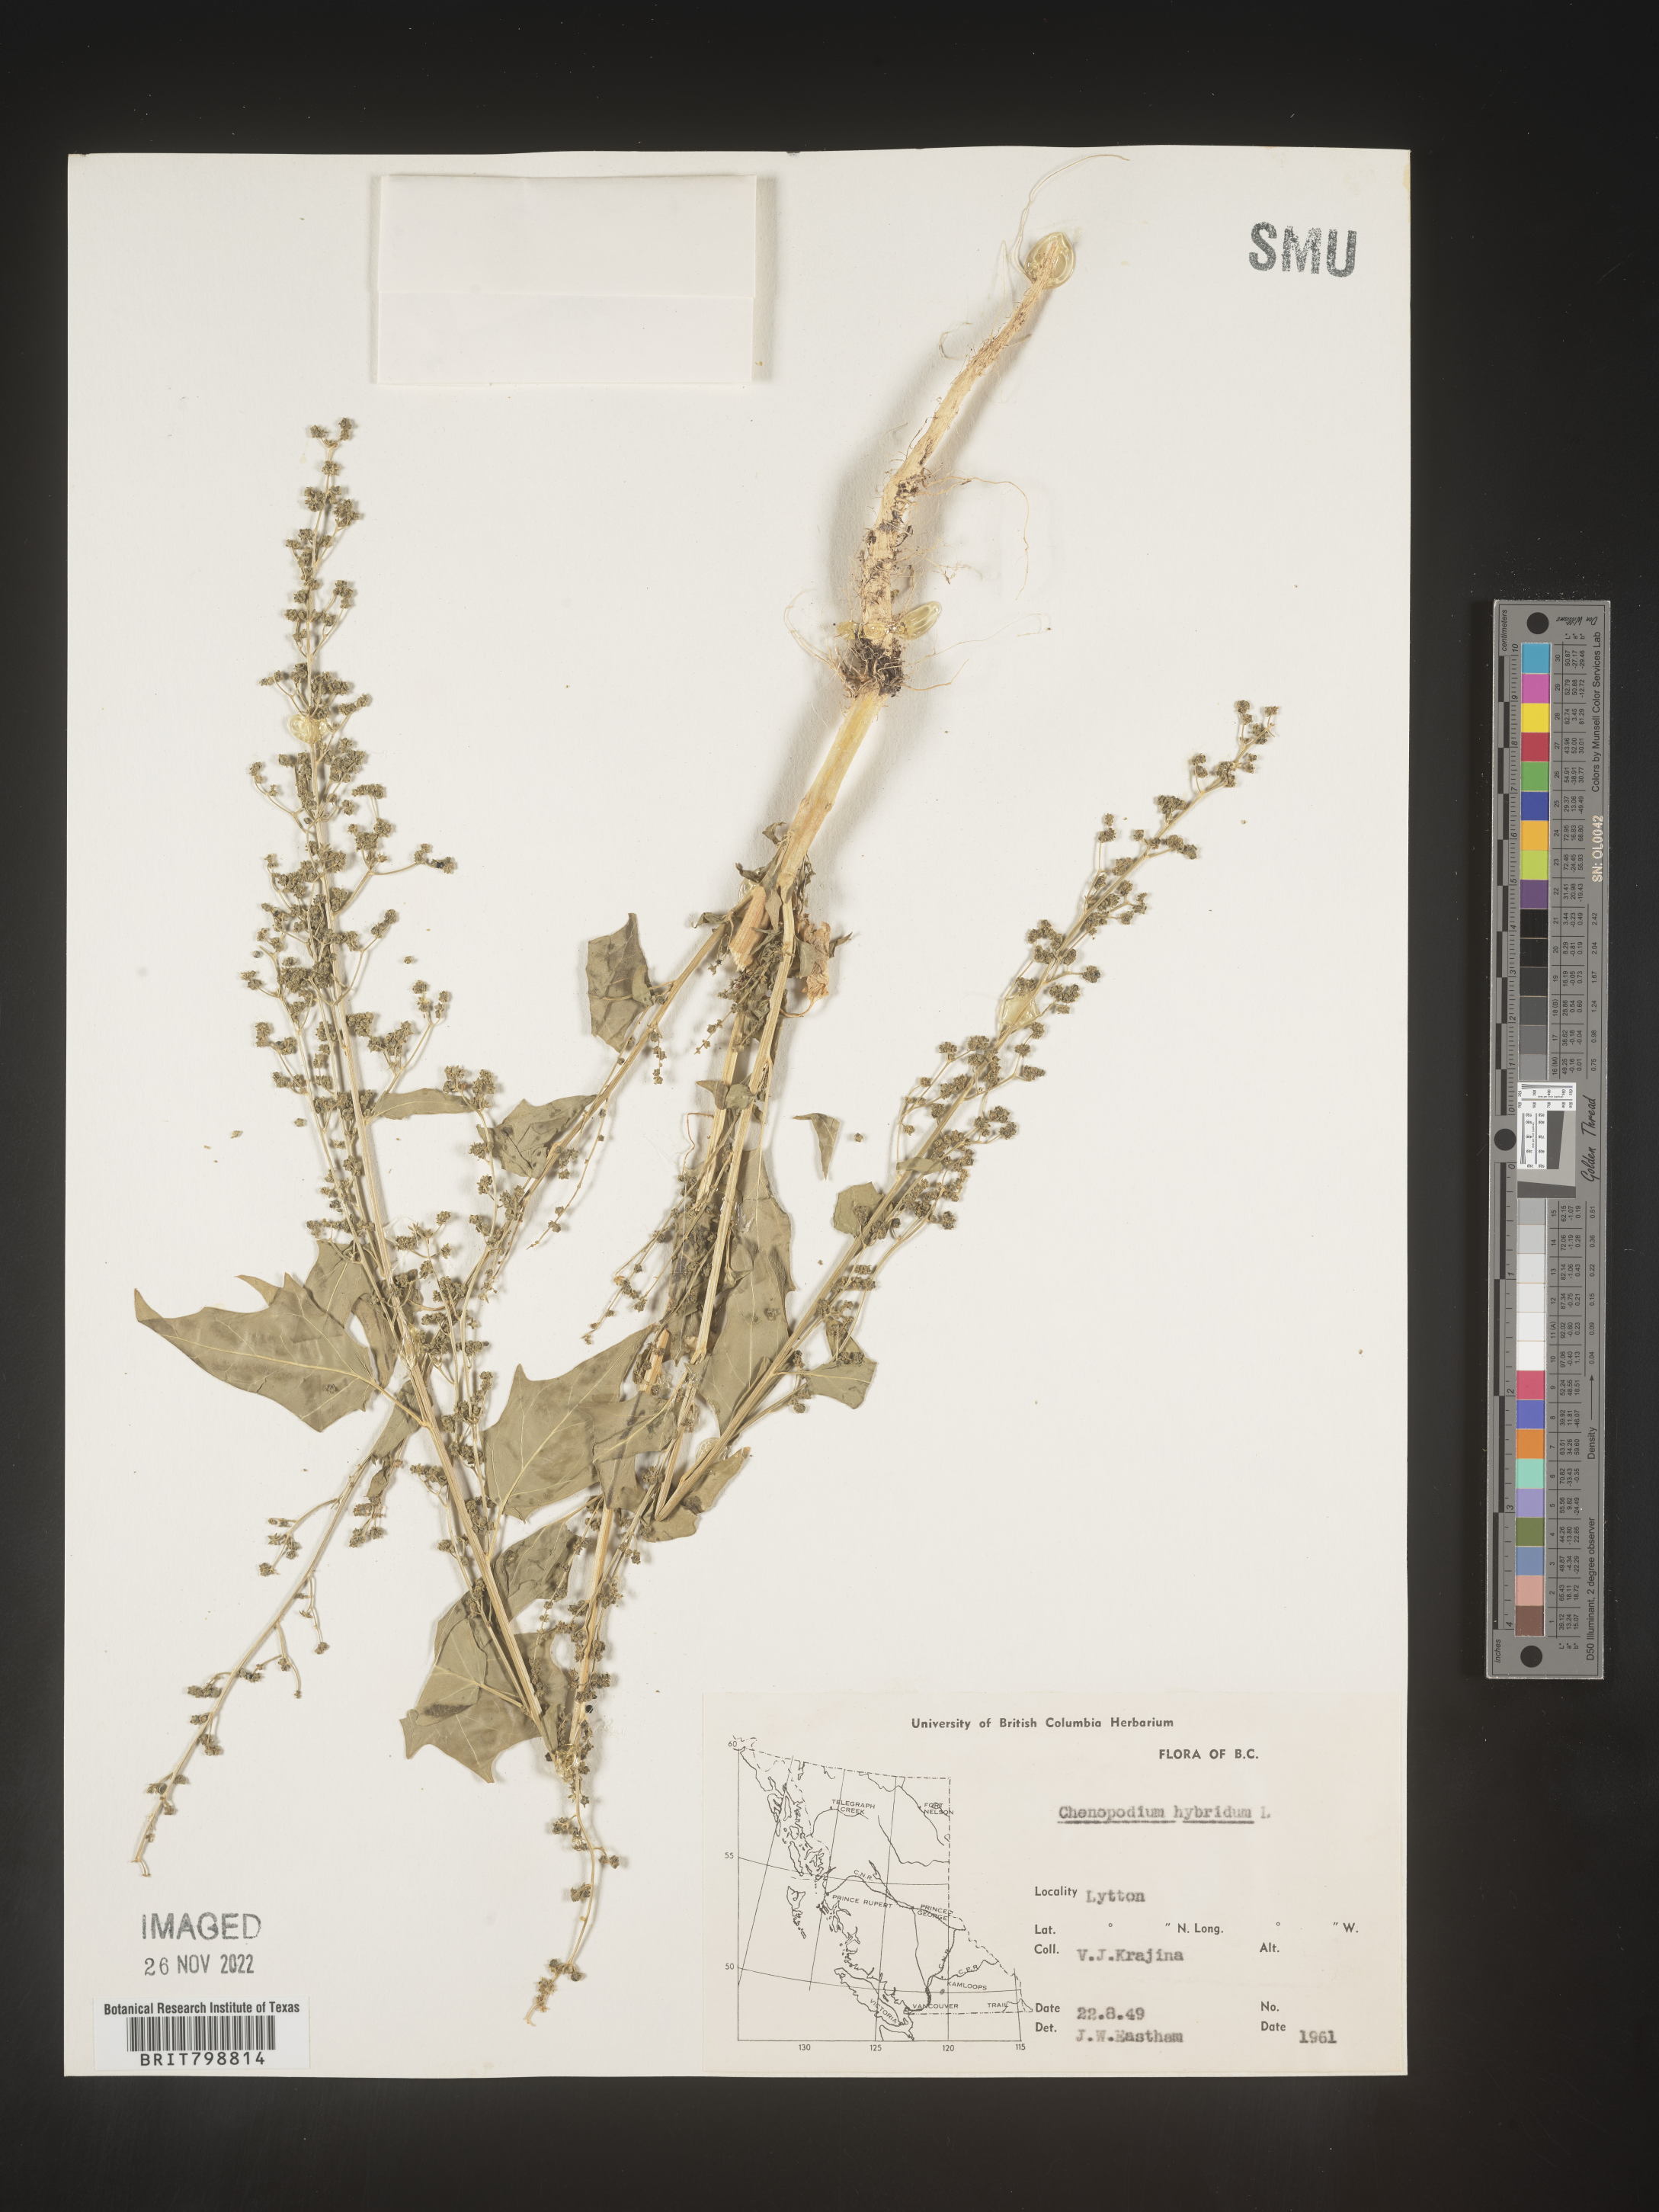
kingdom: Plantae
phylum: Tracheophyta
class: Magnoliopsida
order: Caryophyllales
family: Amaranthaceae
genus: Chenopodiastrum
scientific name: Chenopodiastrum simplex
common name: Large-seed goosefoot
